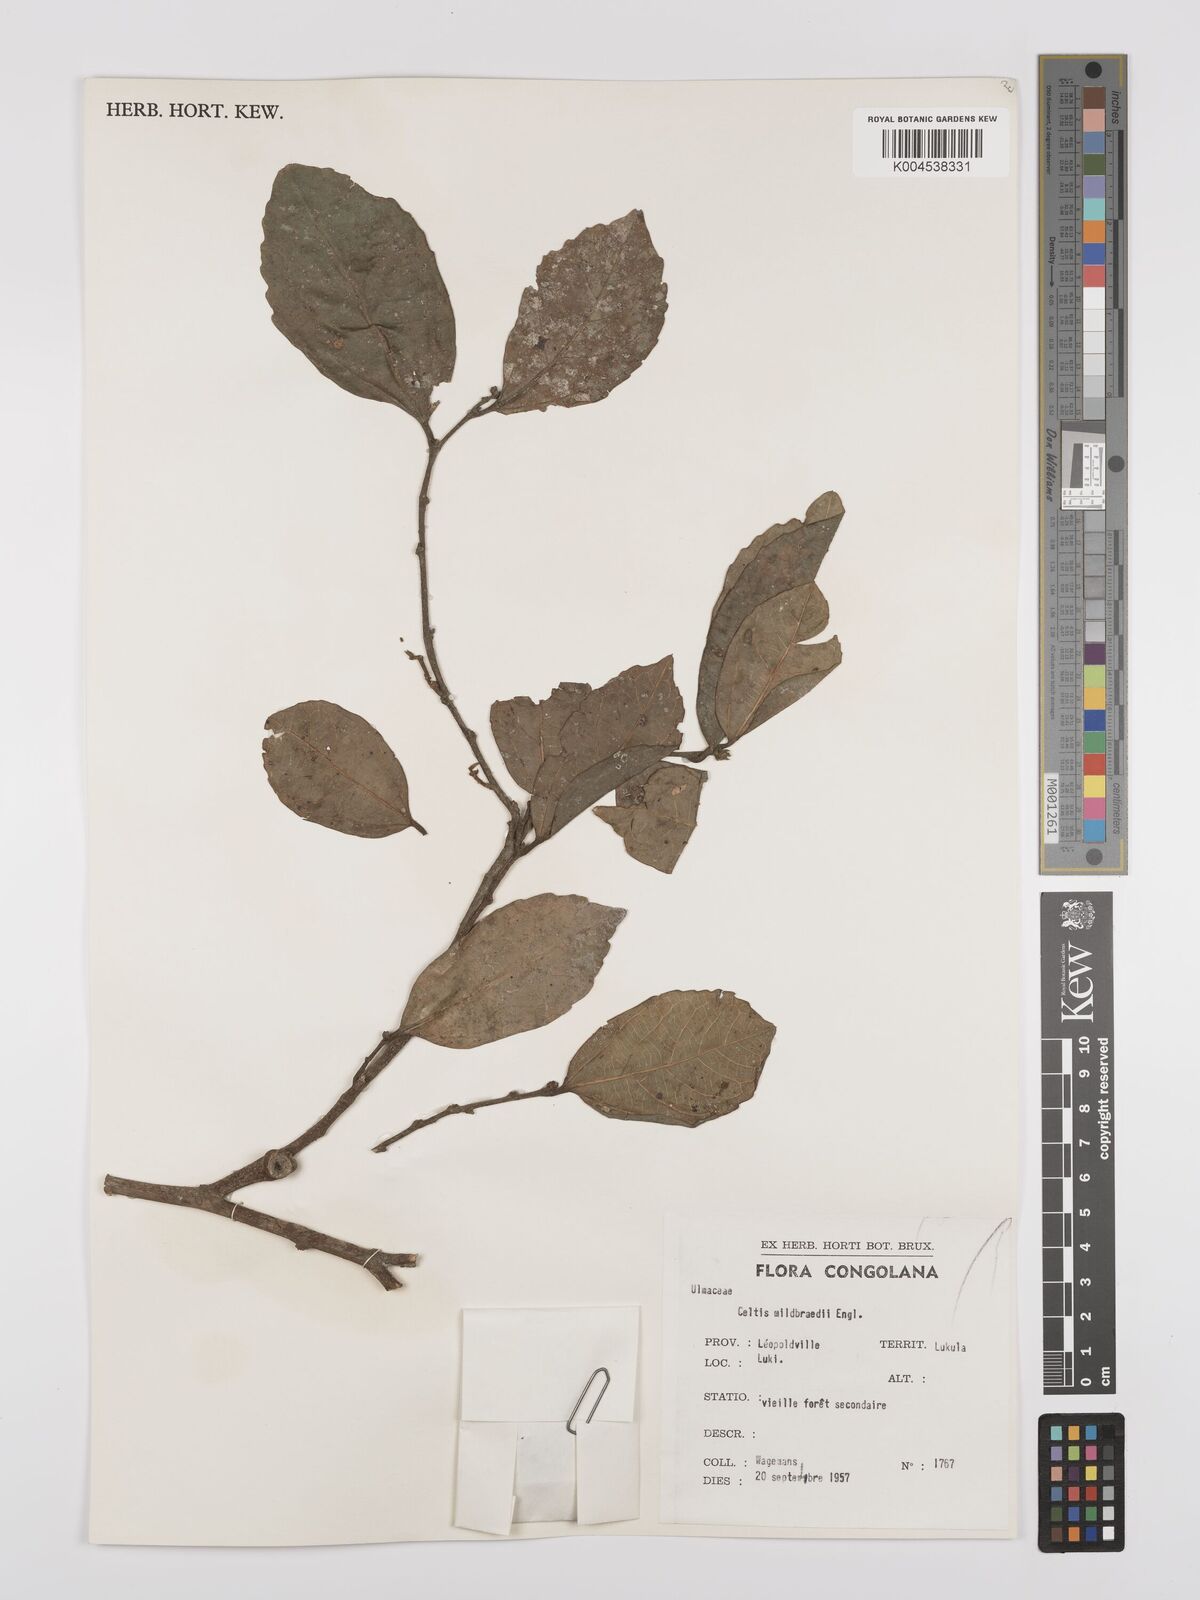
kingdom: Plantae
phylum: Tracheophyta
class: Magnoliopsida
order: Rosales
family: Cannabaceae
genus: Celtis
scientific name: Celtis mildbraedii
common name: Red-fruited stinkwood
